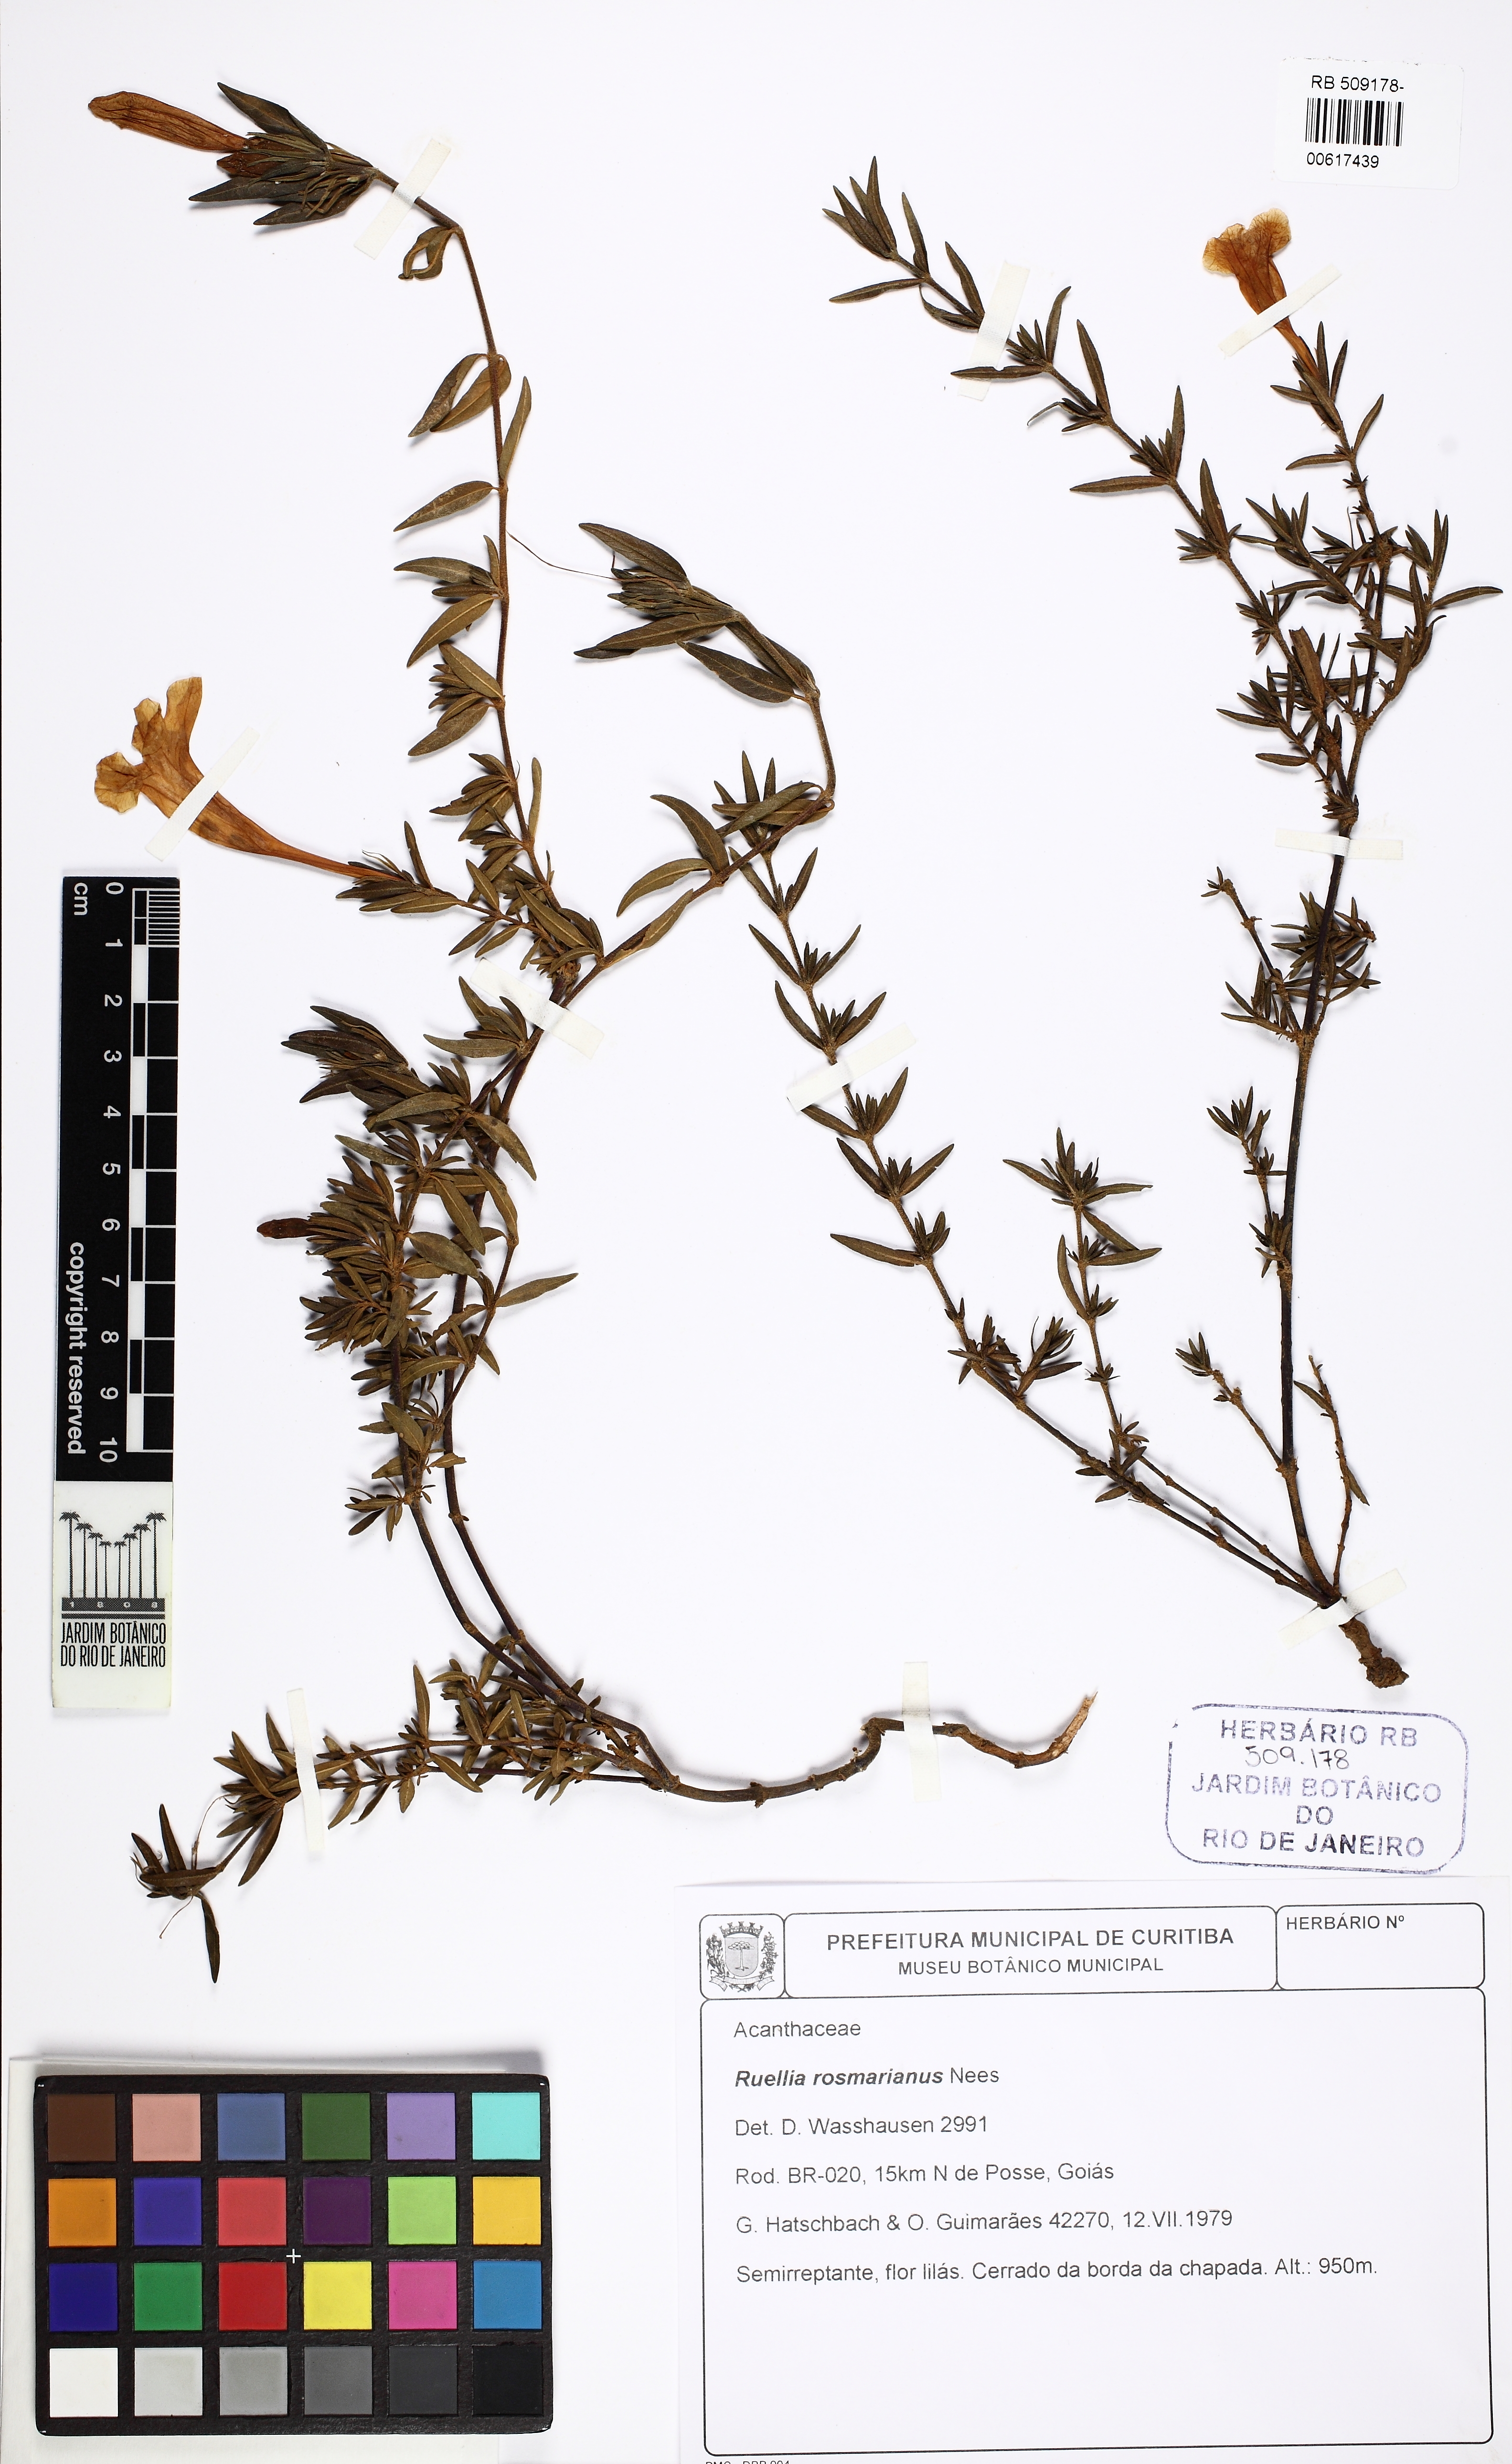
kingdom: Plantae
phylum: Tracheophyta
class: Magnoliopsida
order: Lamiales
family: Acanthaceae
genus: Ruellia
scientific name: Ruellia
